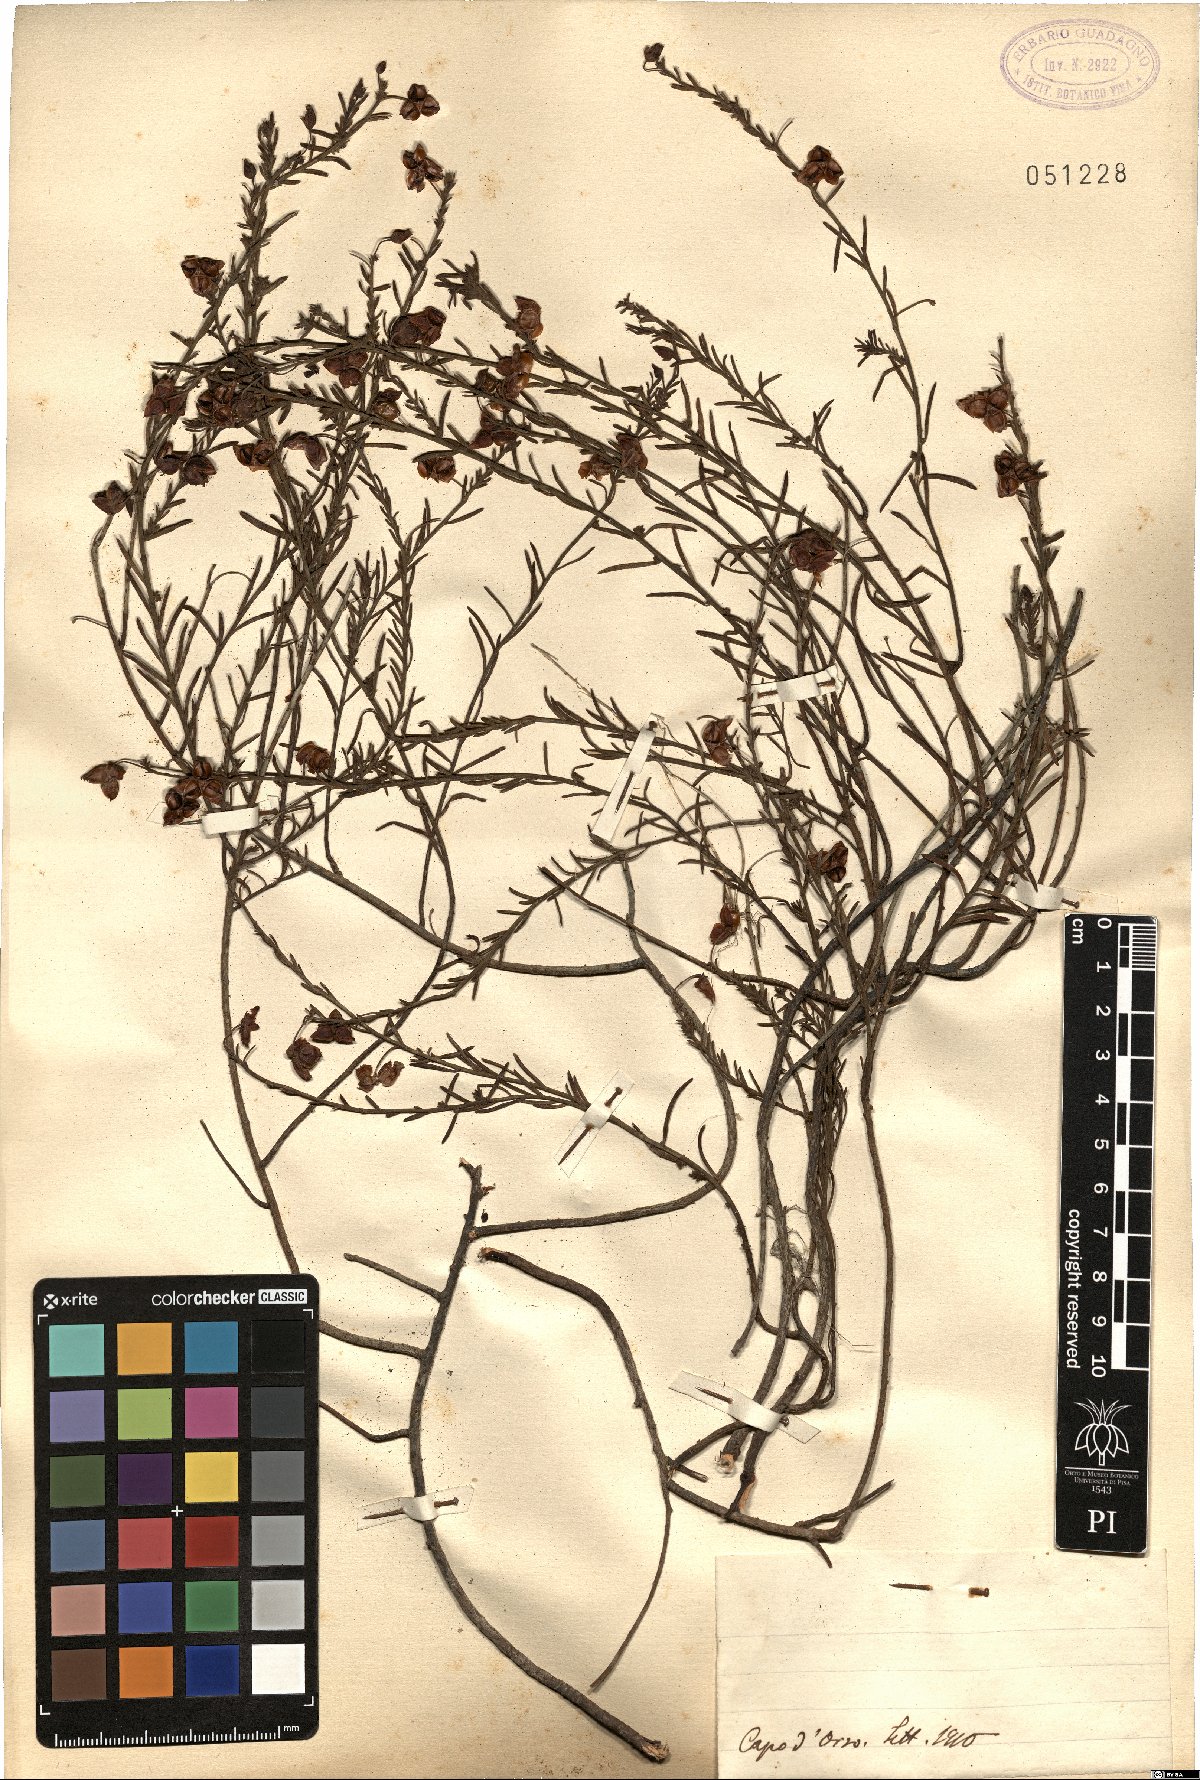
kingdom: Plantae
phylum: Tracheophyta
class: Magnoliopsida
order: Malvales
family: Cistaceae
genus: Helianthemum
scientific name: Helianthemum
